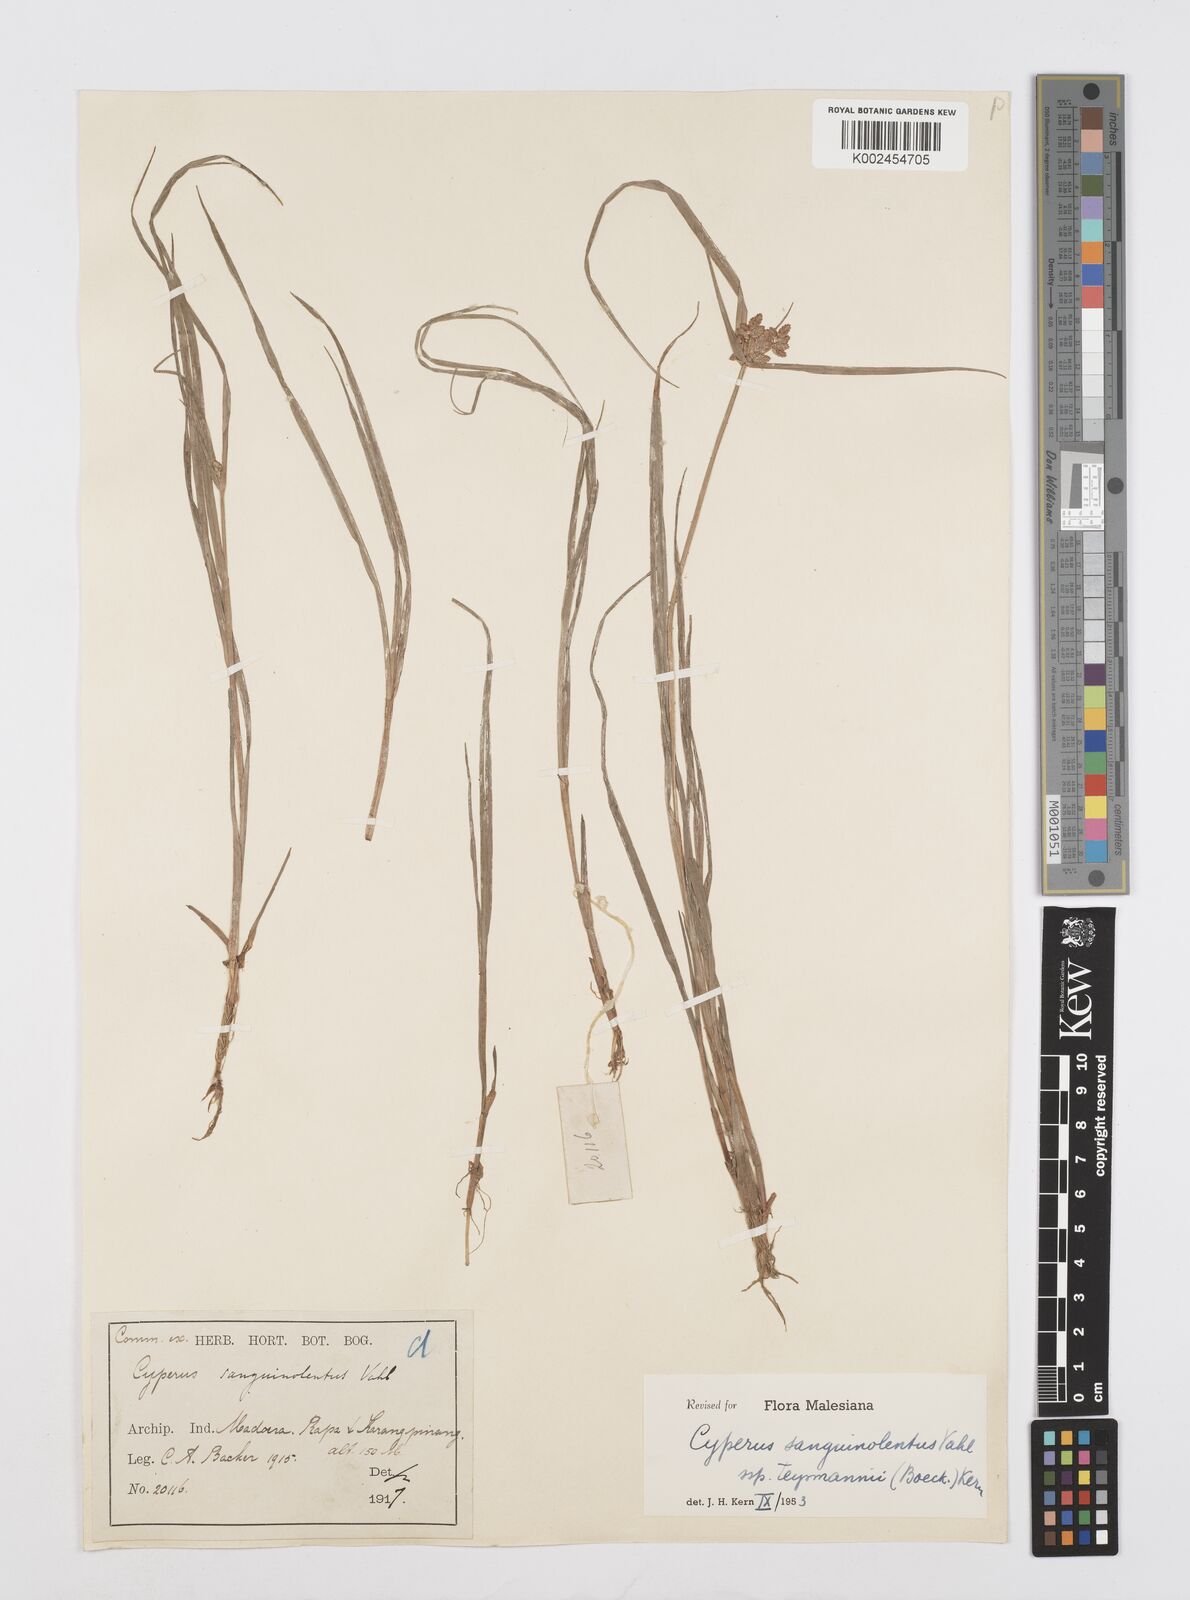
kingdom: Plantae
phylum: Tracheophyta
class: Liliopsida
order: Poales
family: Cyperaceae
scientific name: Cyperaceae
